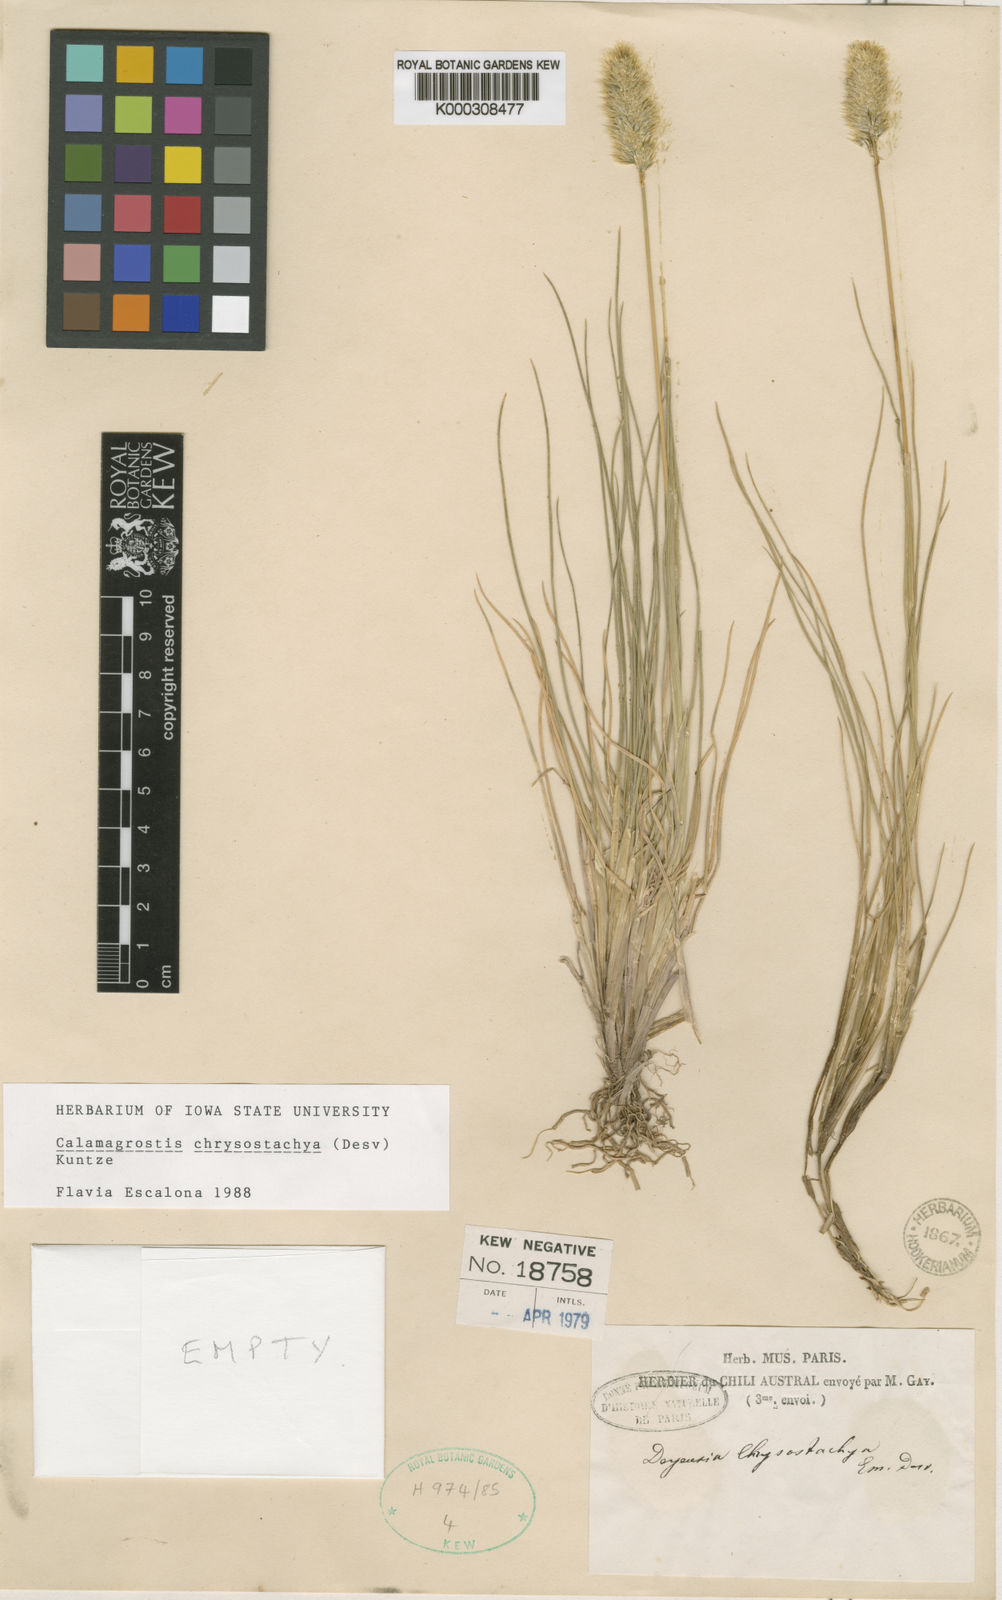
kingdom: Plantae
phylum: Tracheophyta
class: Liliopsida
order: Poales
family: Poaceae
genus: Deschampsia
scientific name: Deschampsia chrysantha
